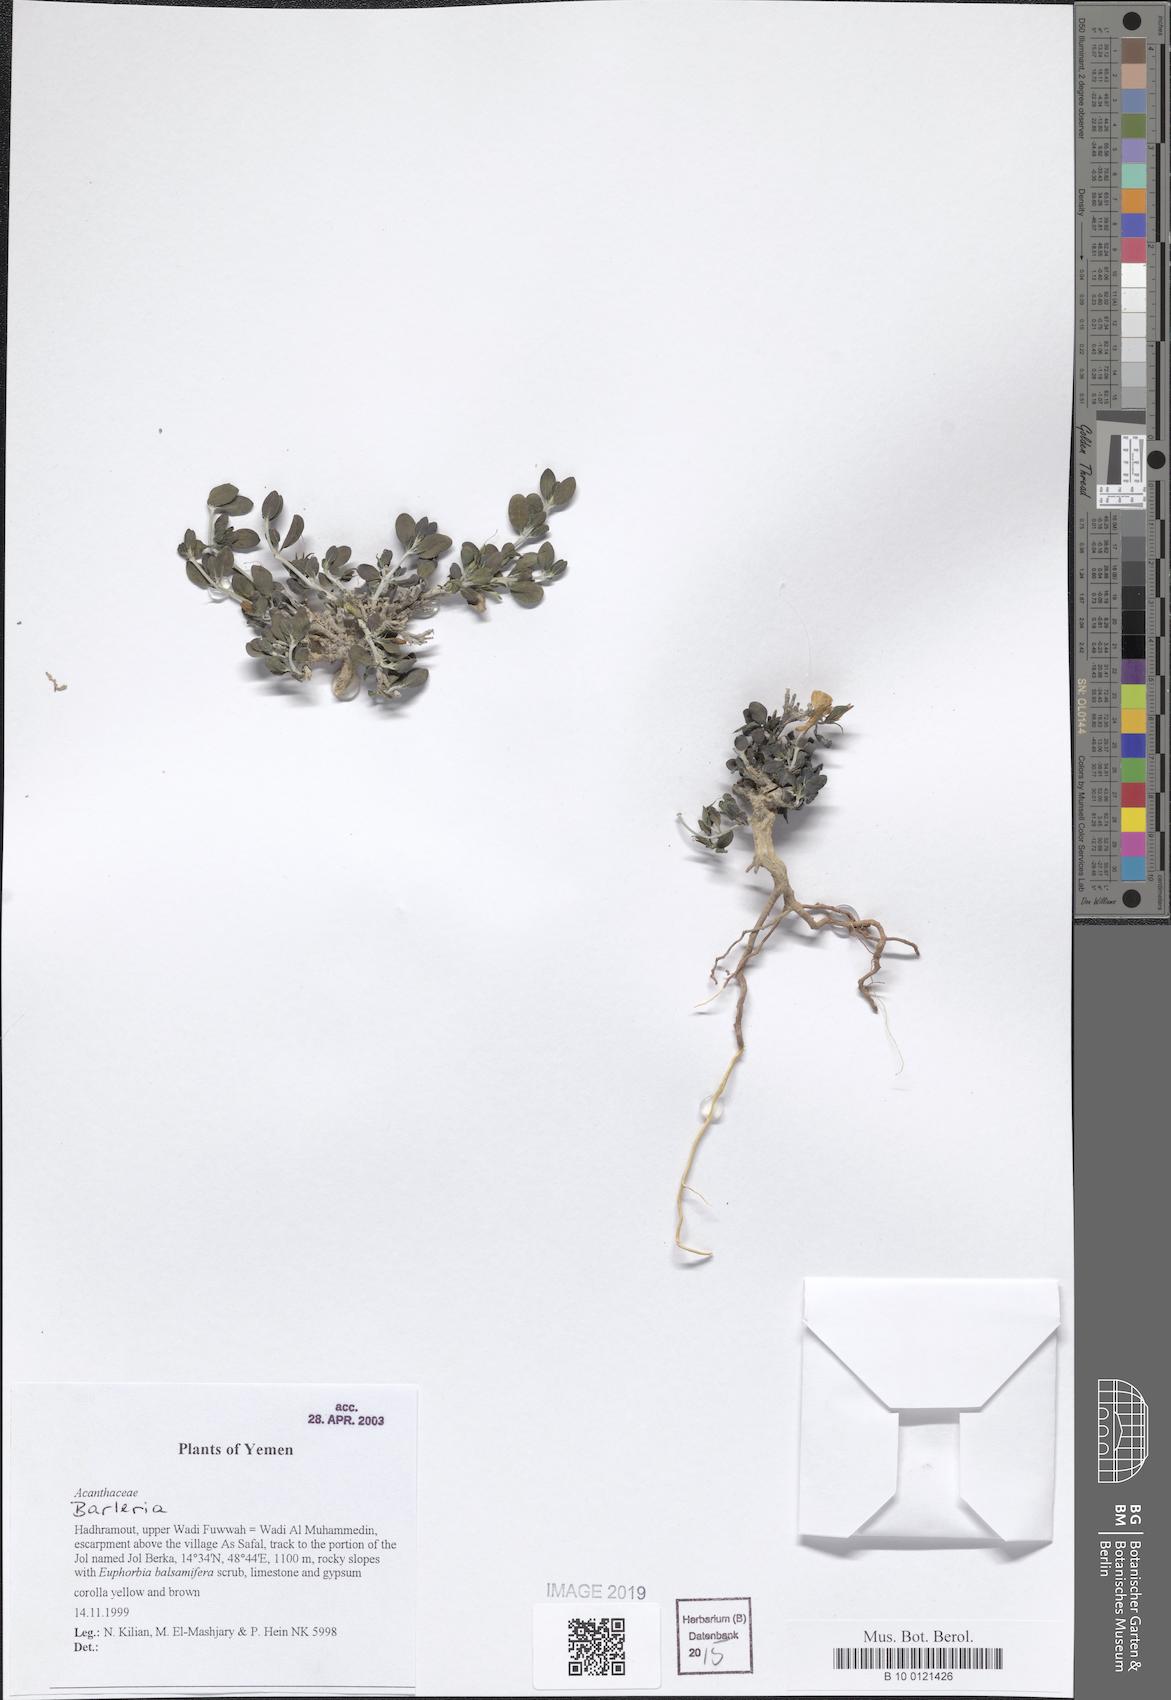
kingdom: Plantae
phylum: Tracheophyta
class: Magnoliopsida
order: Lamiales
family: Acanthaceae
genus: Barleria
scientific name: Barleria
